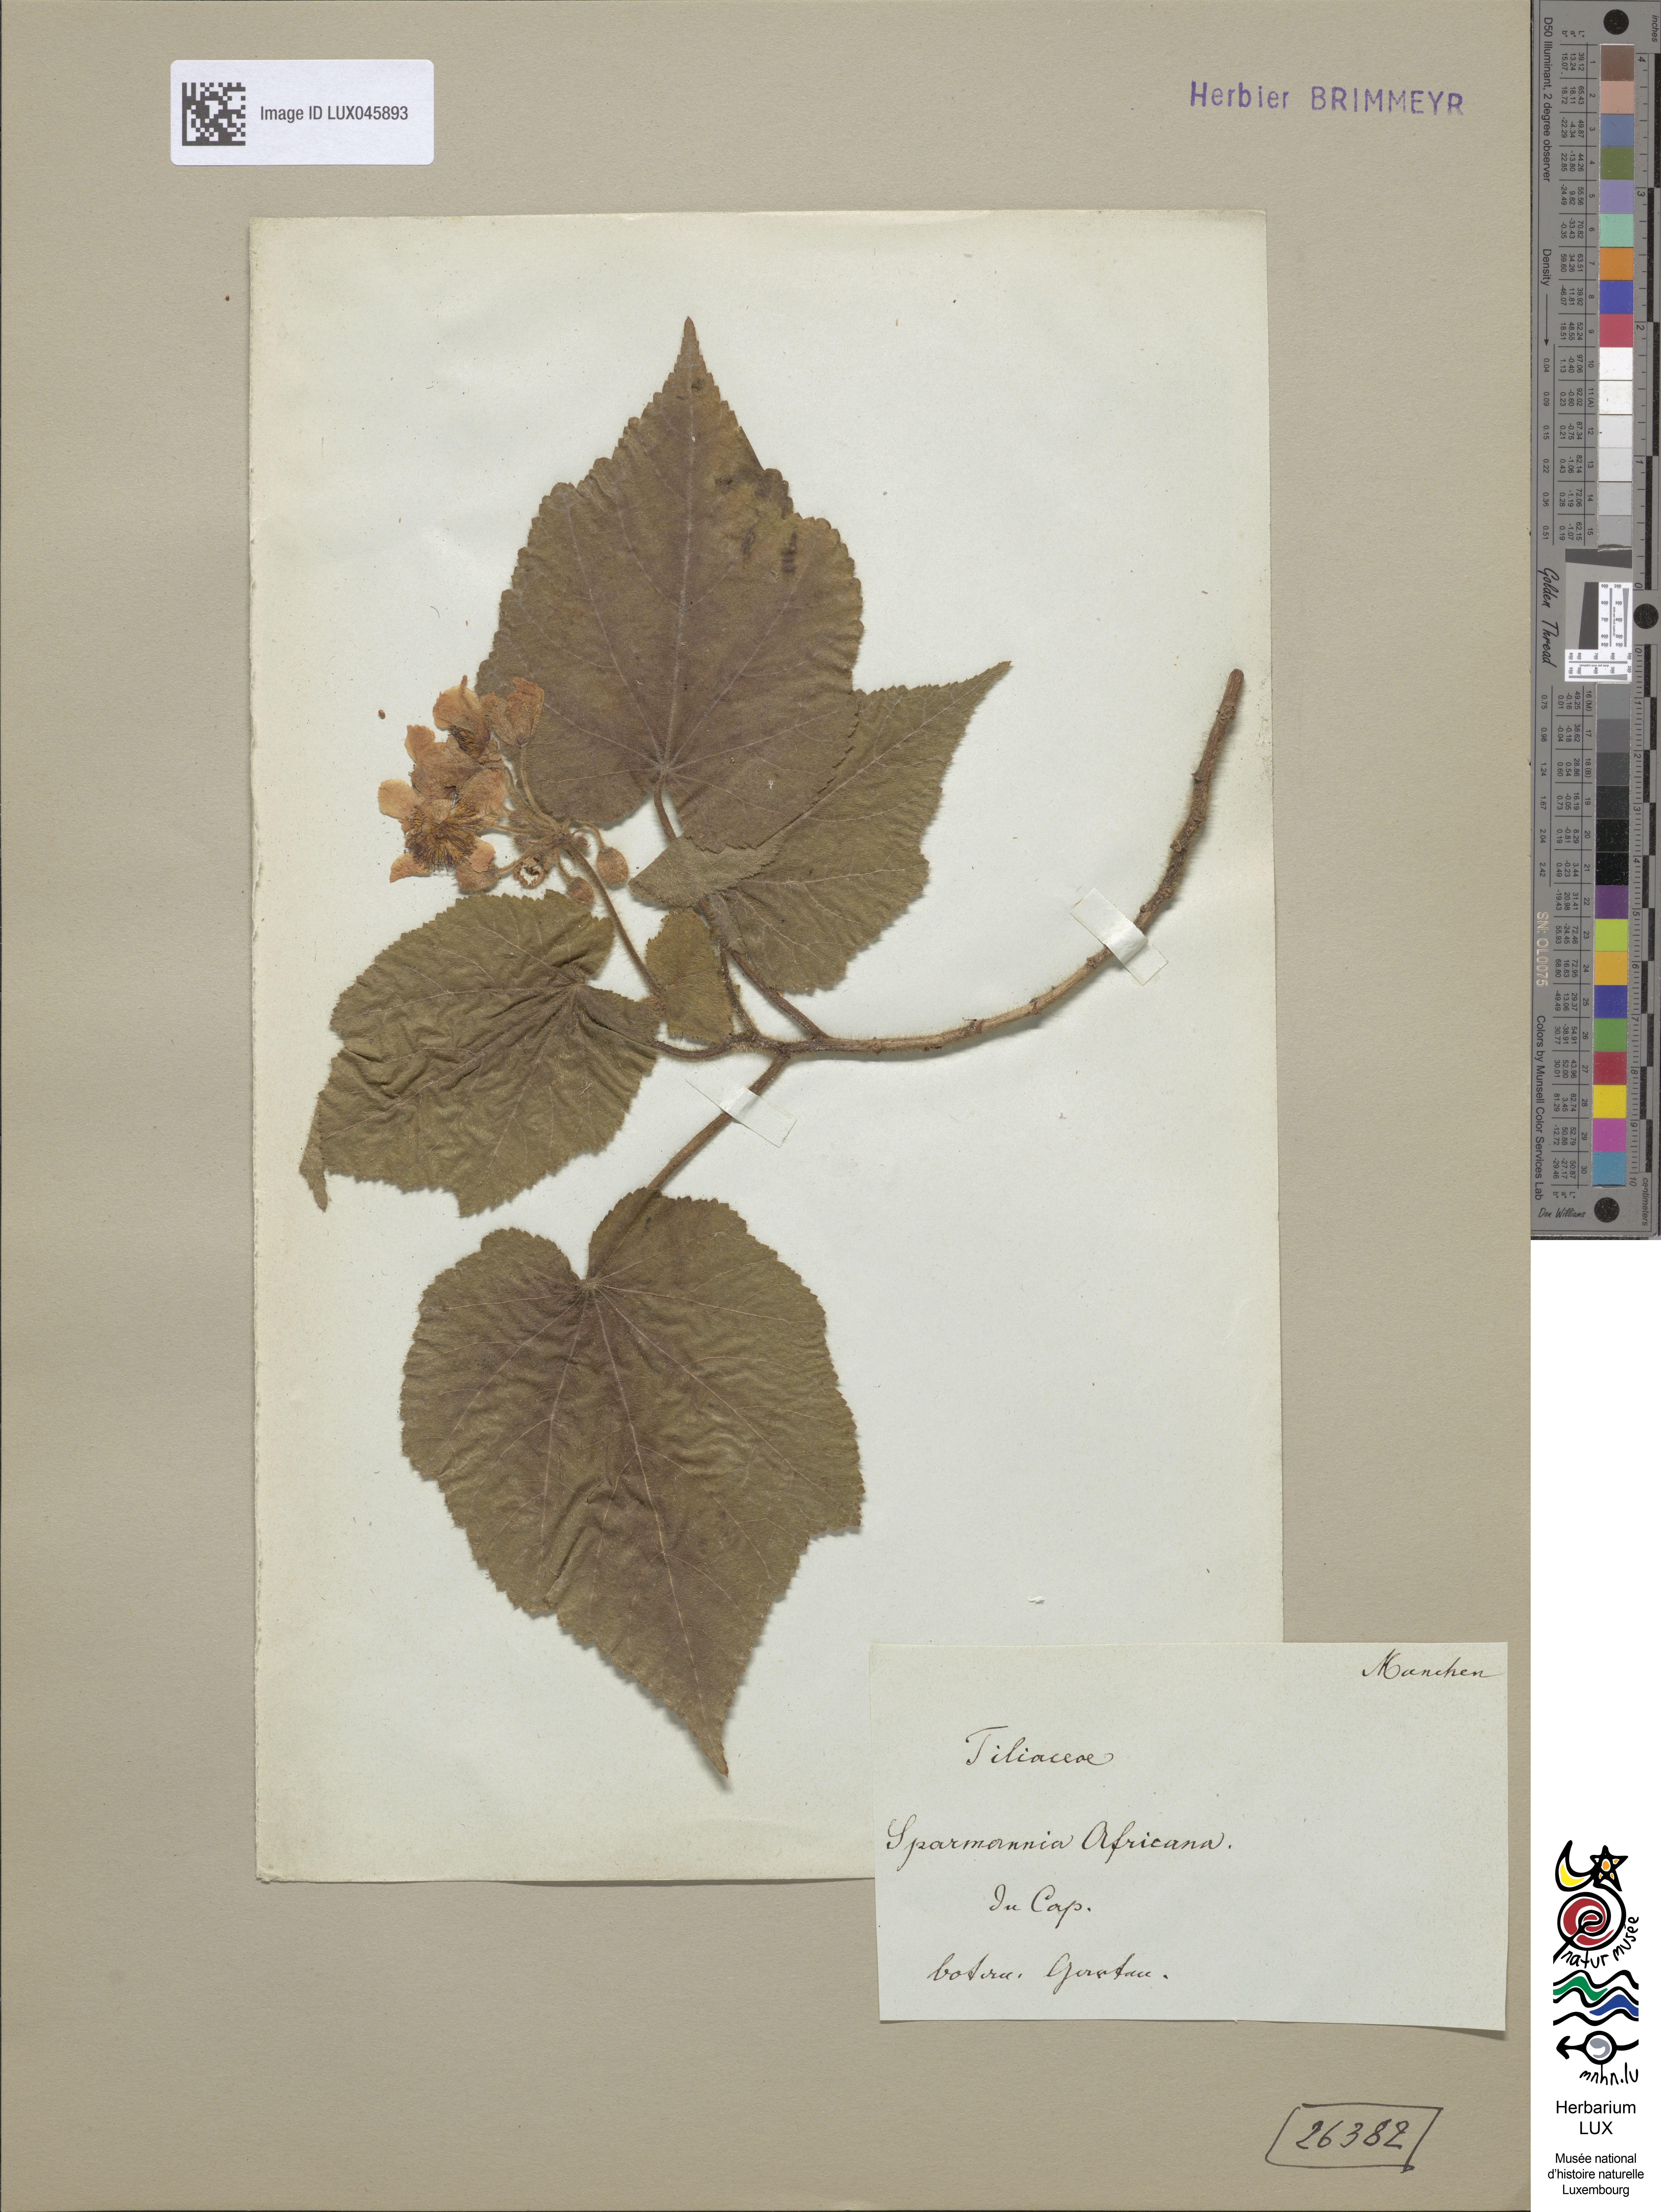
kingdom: Plantae
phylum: Tracheophyta
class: Magnoliopsida
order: Malvales
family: Malvaceae
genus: Sparmannia
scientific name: Sparmannia africana
